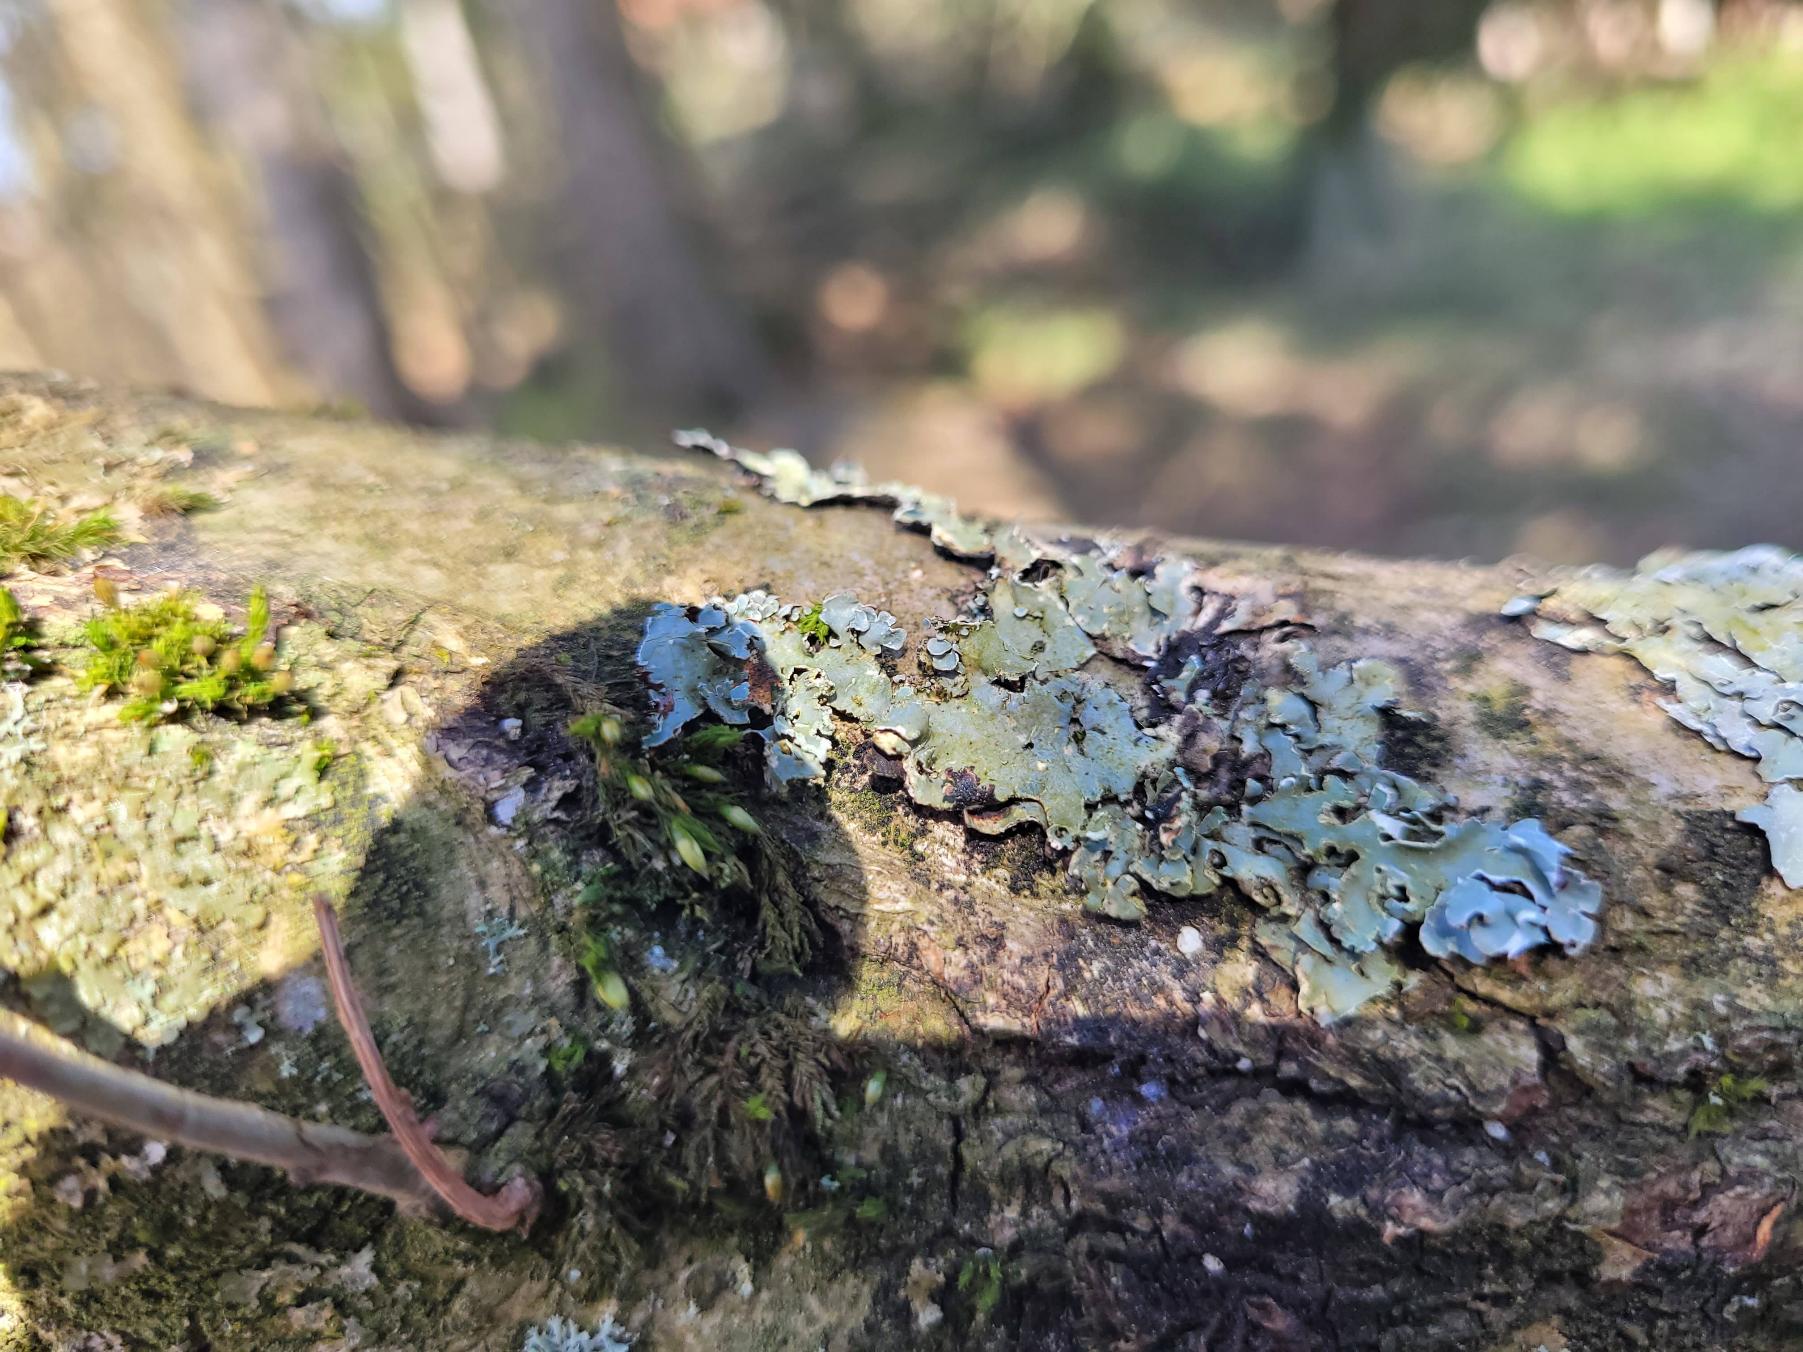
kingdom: Fungi
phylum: Ascomycota
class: Lecanoromycetes
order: Lecanorales
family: Parmeliaceae
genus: Parmelia
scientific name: Parmelia sulcata
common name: Rynket skållav
